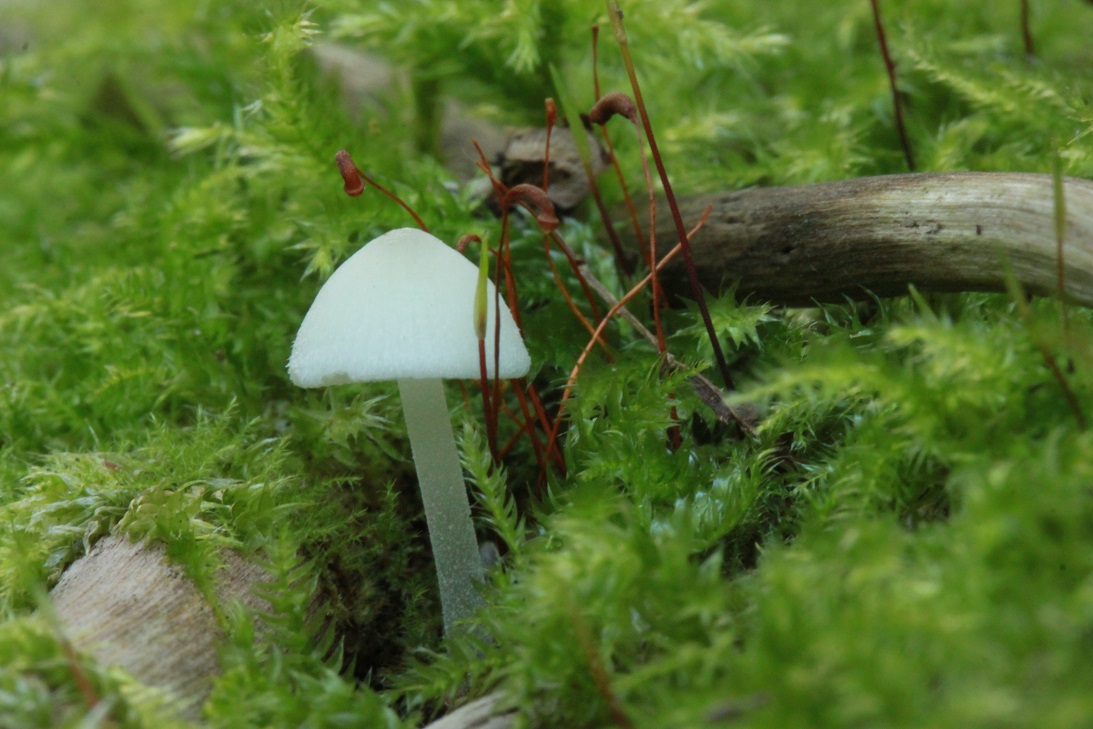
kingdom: Fungi
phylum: Basidiomycota
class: Agaricomycetes
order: Agaricales
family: Porotheleaceae
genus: Phloeomana
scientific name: Phloeomana minutula
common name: bleg huesvamp
